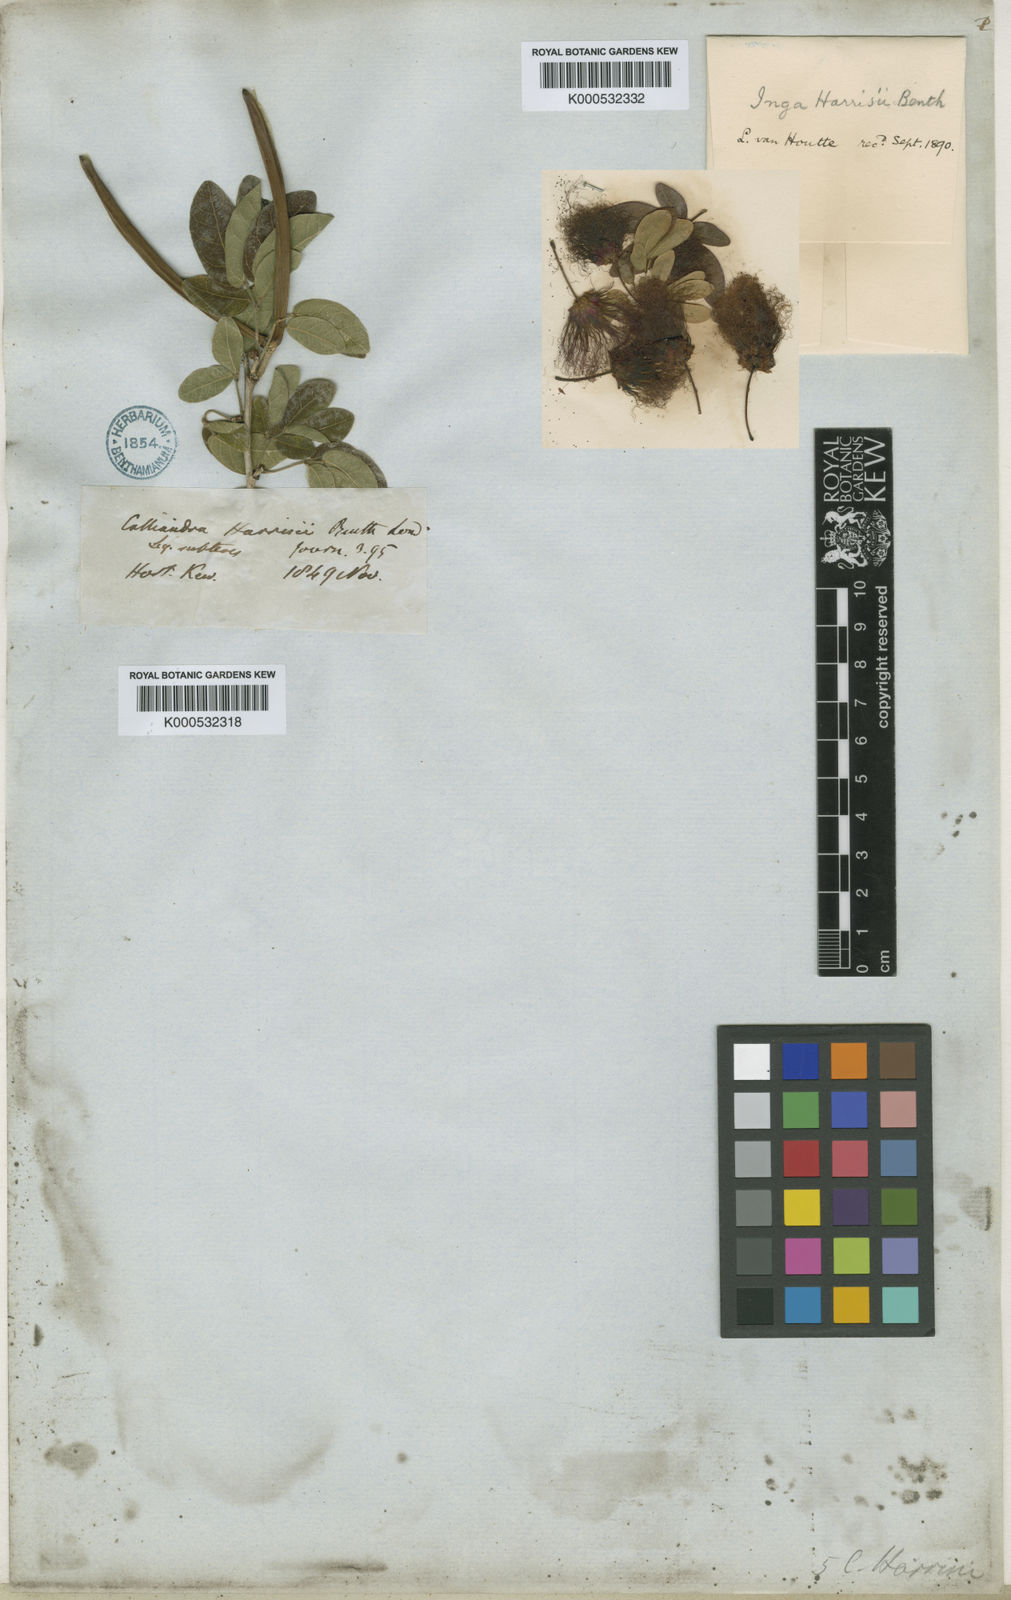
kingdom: Plantae
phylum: Tracheophyta
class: Magnoliopsida
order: Fabales
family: Fabaceae
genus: Calliandra
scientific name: Calliandra harrisii
